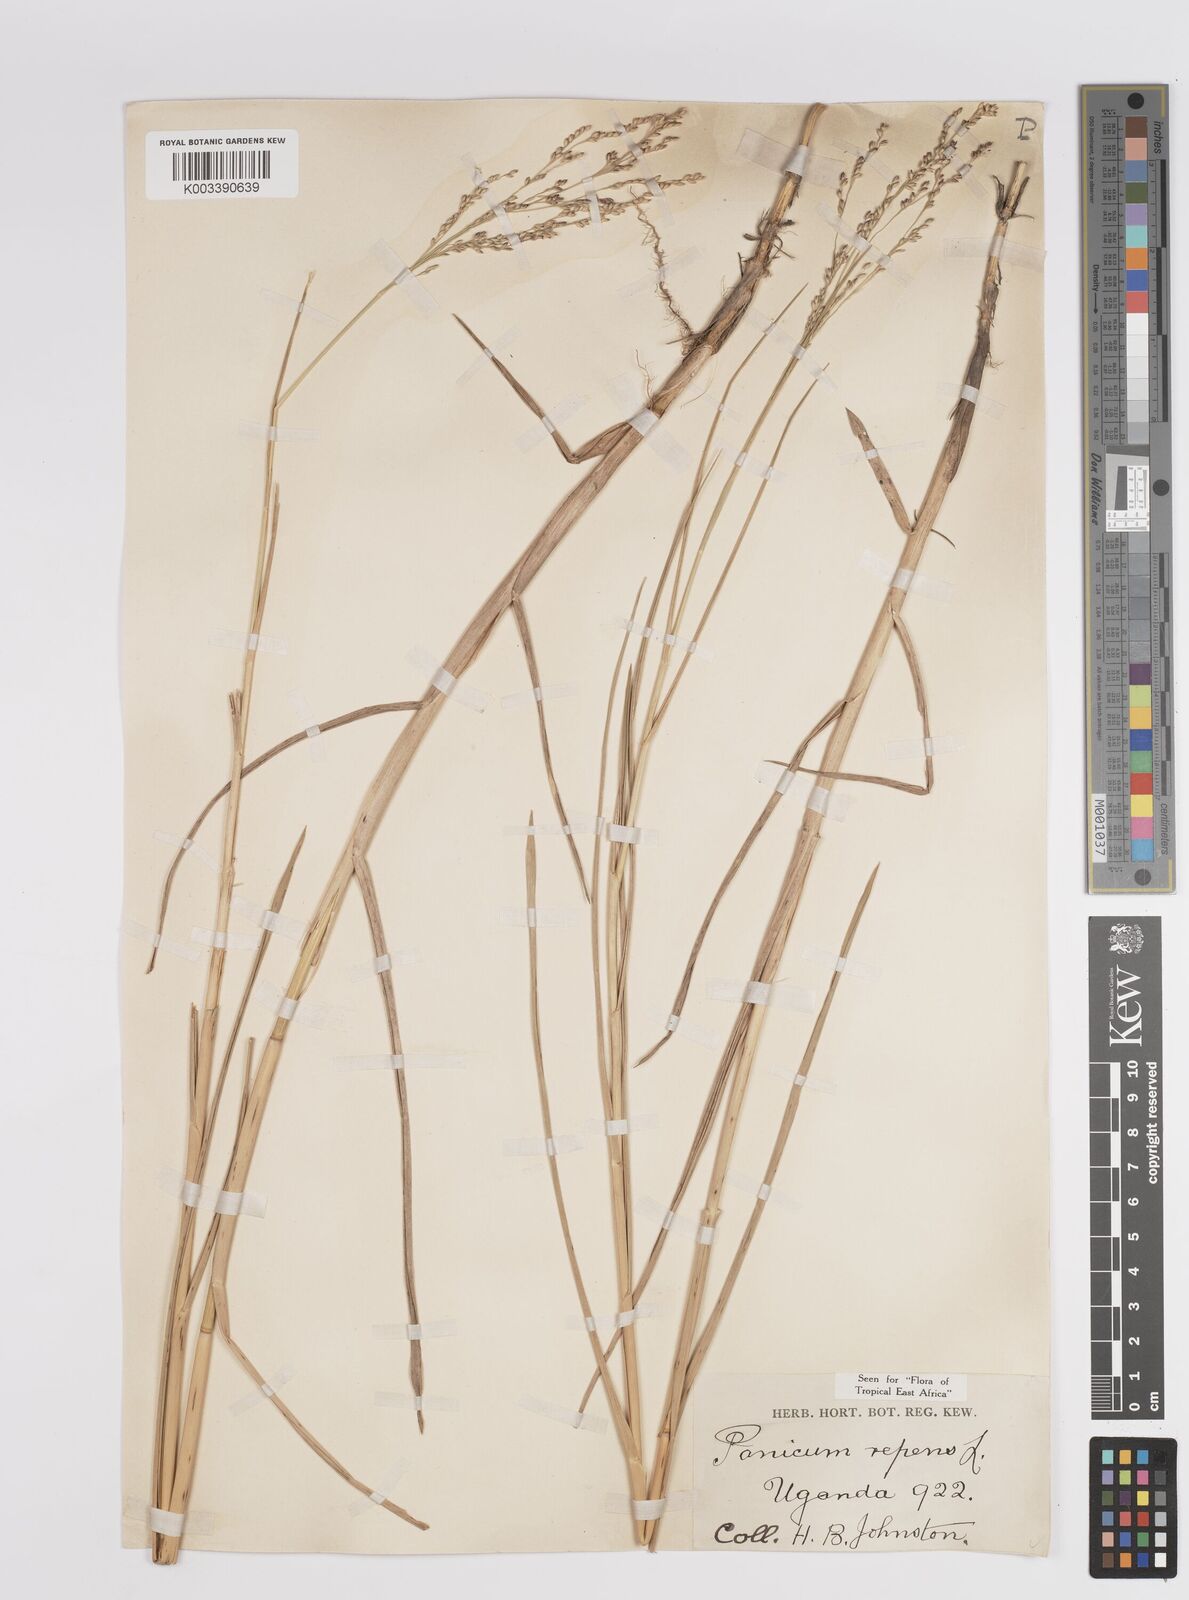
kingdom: Plantae
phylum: Tracheophyta
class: Liliopsida
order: Poales
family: Poaceae
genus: Panicum
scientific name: Panicum repens
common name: Torpedo grass
